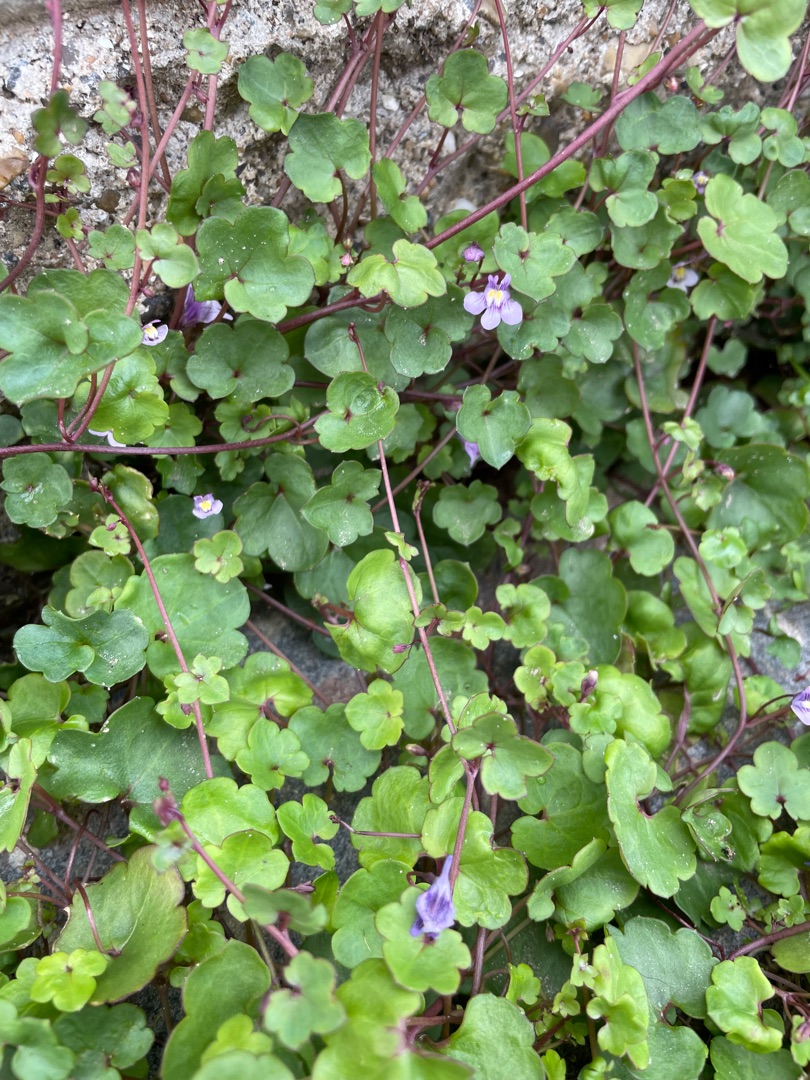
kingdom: Plantae
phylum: Tracheophyta
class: Magnoliopsida
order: Lamiales
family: Plantaginaceae
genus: Cymbalaria
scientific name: Cymbalaria muralis
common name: Vedbend-torskemund
